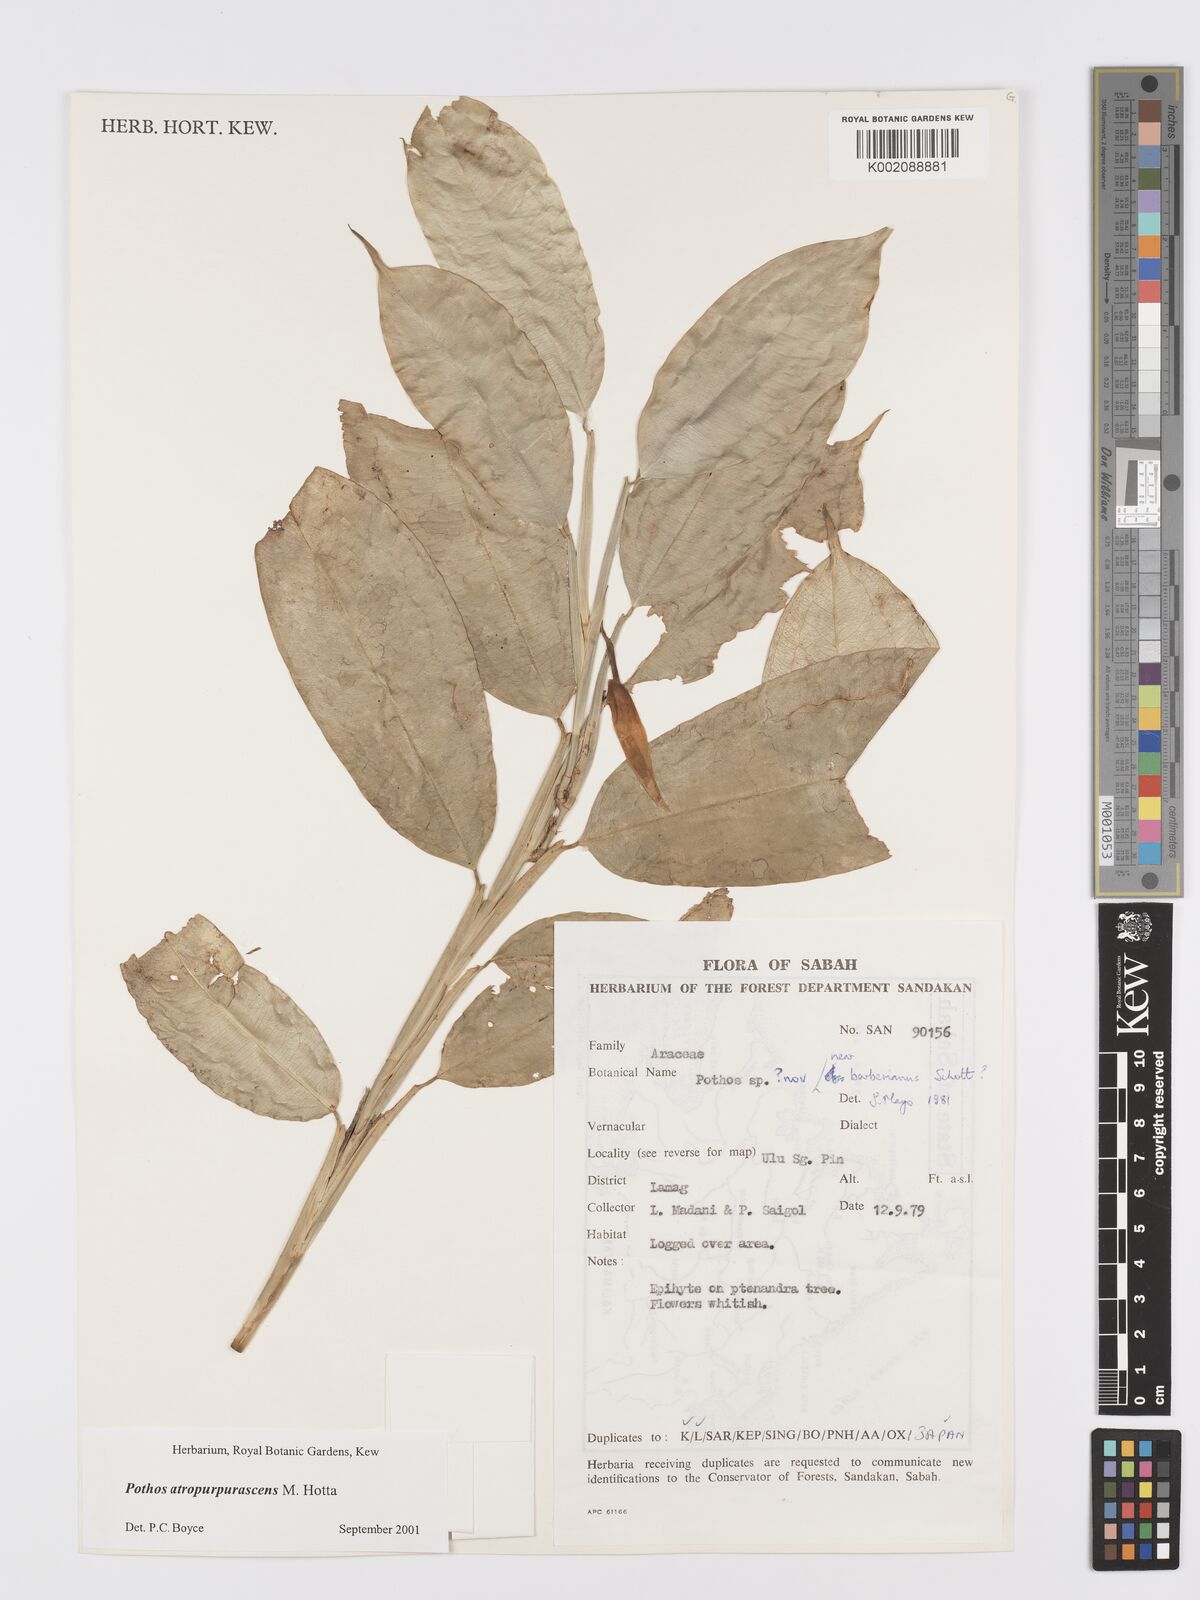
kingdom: Plantae
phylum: Tracheophyta
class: Liliopsida
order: Alismatales
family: Araceae
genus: Pothos
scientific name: Pothos atropurpurascens
